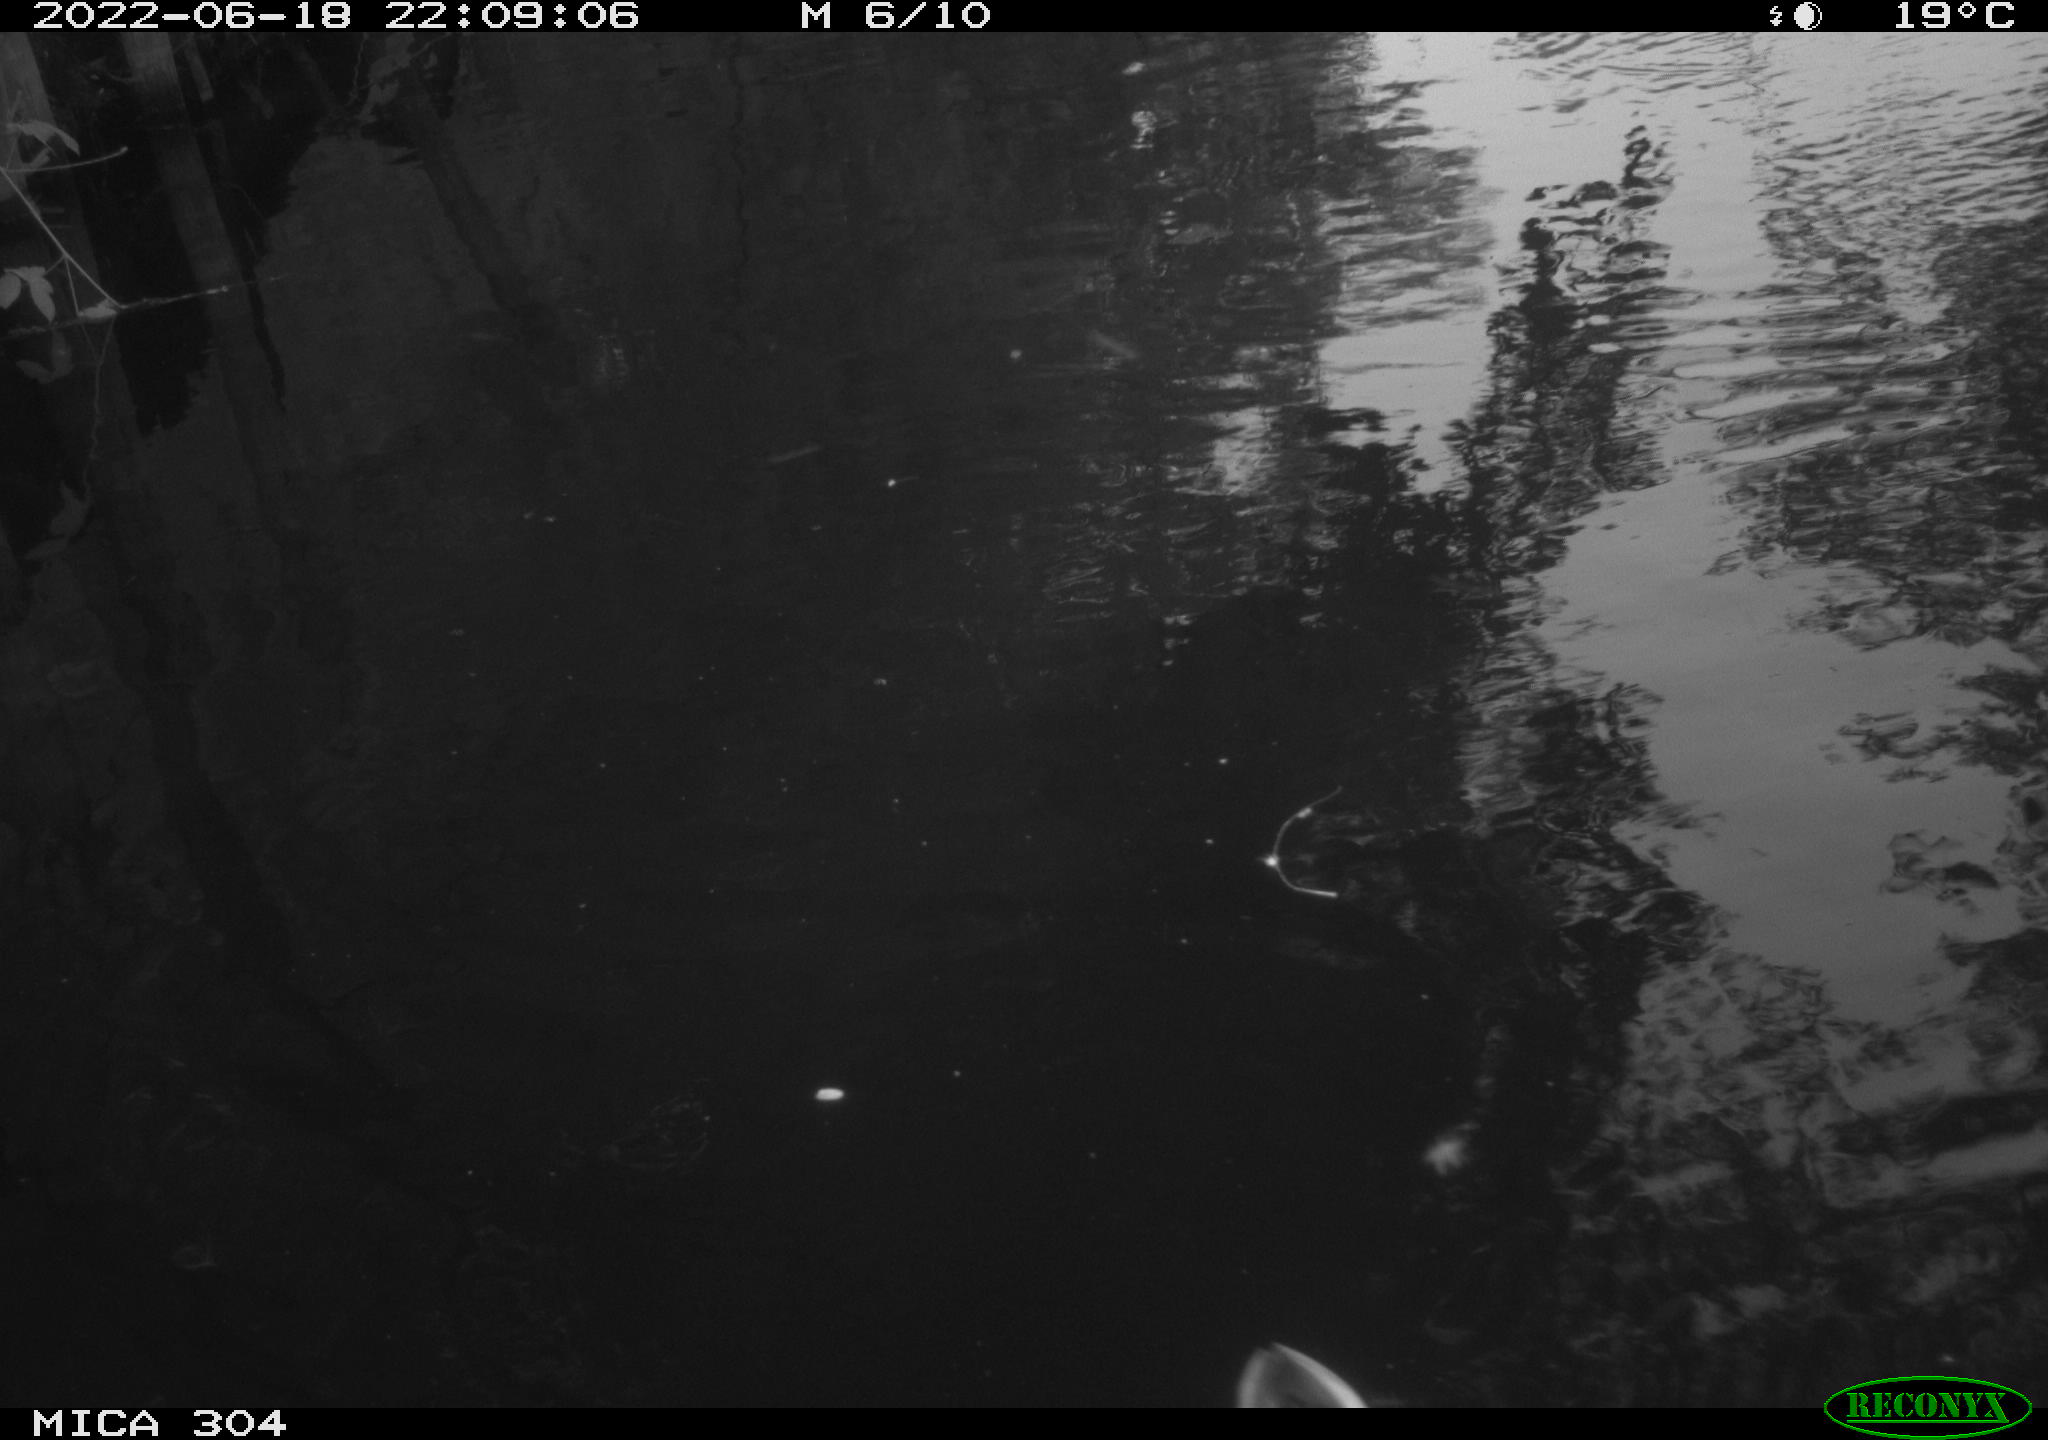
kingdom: Animalia
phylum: Chordata
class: Aves
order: Anseriformes
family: Anatidae
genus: Anas
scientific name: Anas platyrhynchos
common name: Mallard
